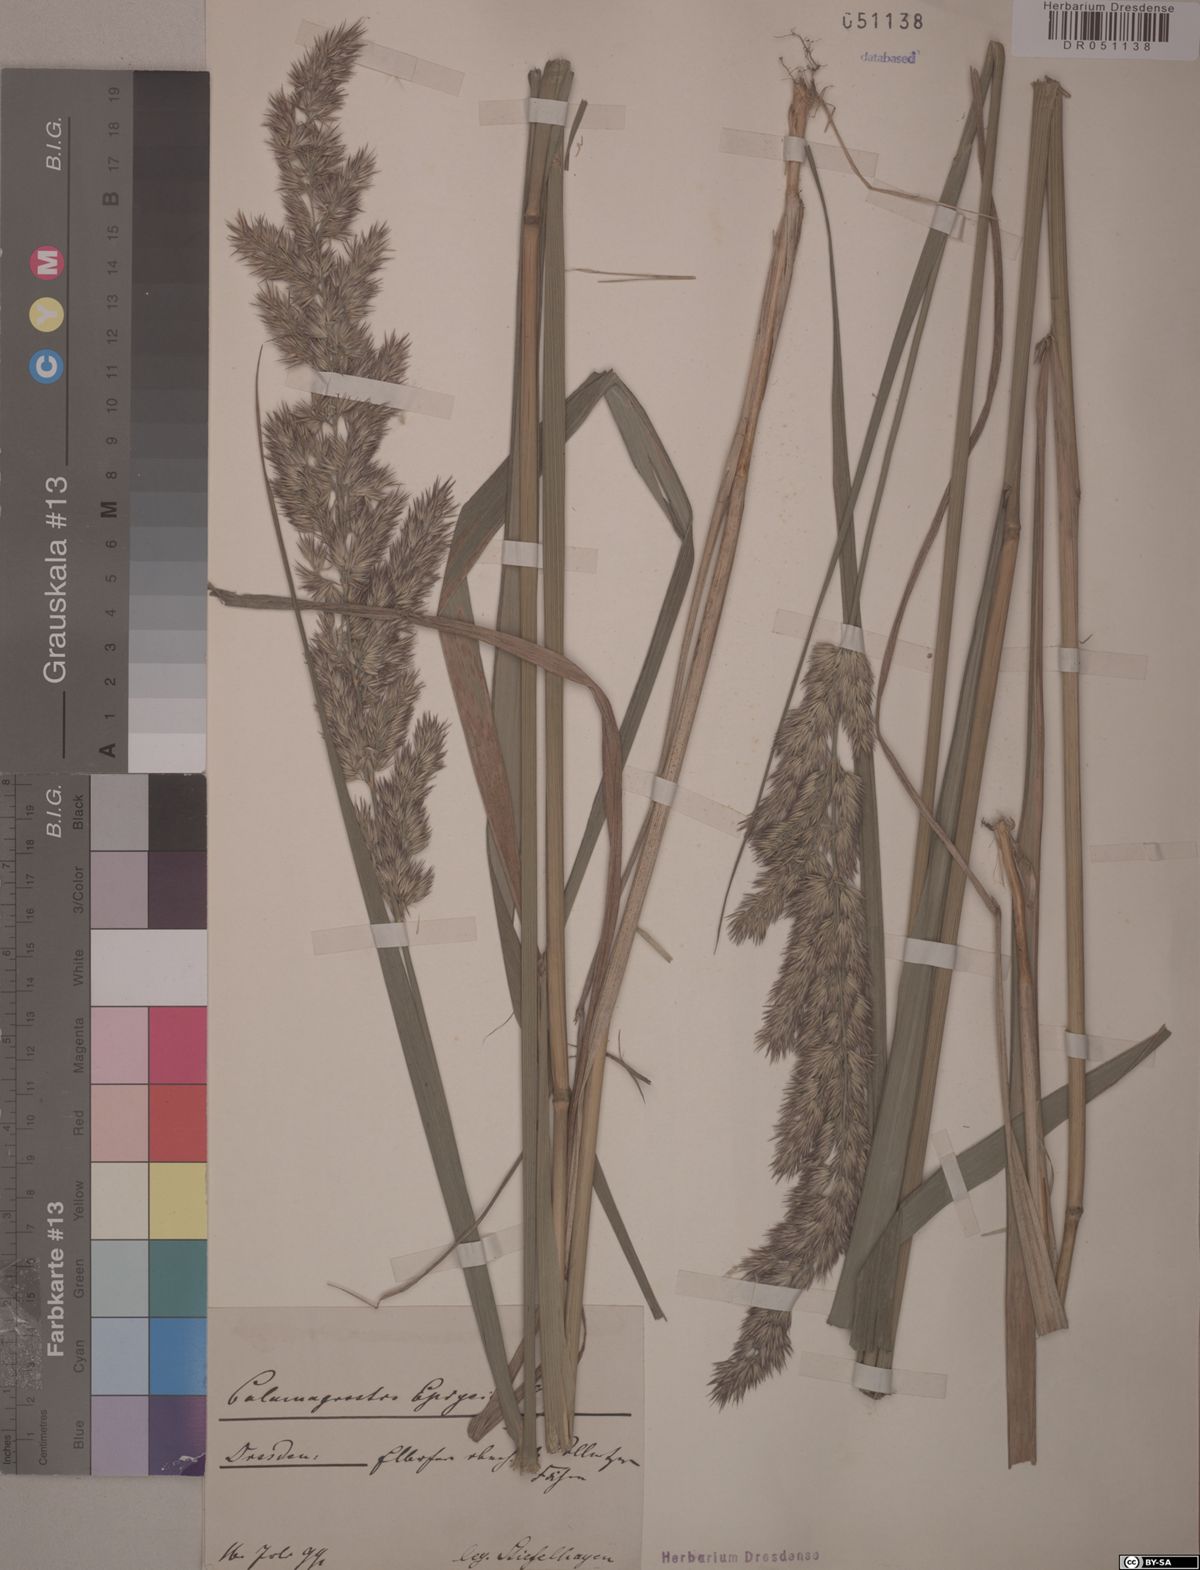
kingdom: Plantae
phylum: Tracheophyta
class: Liliopsida
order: Poales
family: Poaceae
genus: Calamagrostis
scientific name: Calamagrostis epigejos
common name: Wood small-reed
